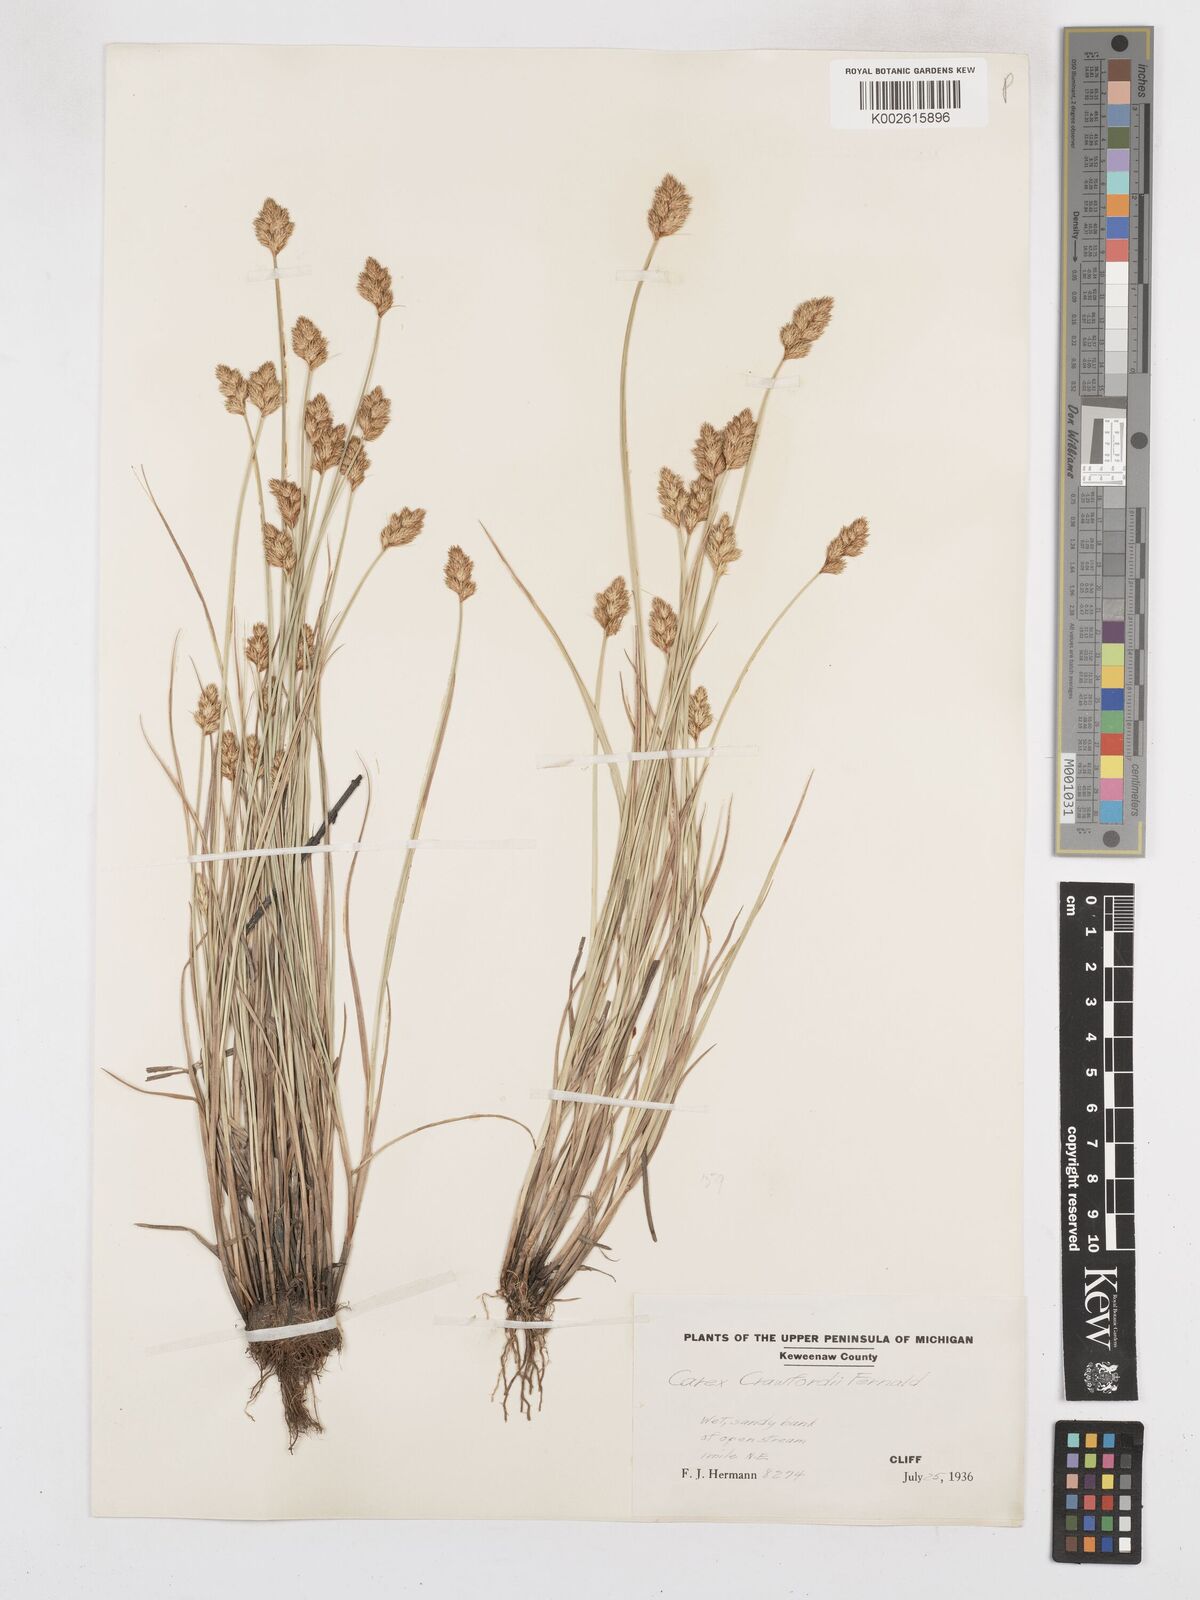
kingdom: Plantae
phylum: Tracheophyta
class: Liliopsida
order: Poales
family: Cyperaceae
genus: Carex
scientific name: Carex crawfordii
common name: Crawford's sedge
